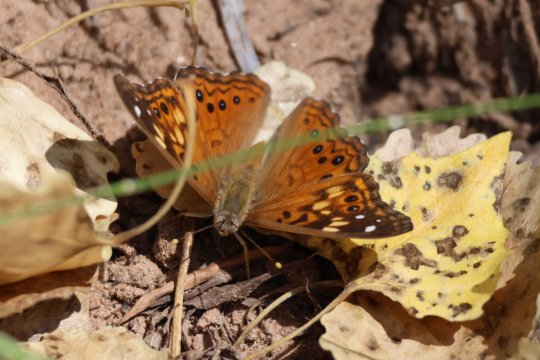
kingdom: Animalia
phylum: Arthropoda
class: Insecta
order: Lepidoptera
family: Nymphalidae
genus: Asterocampa
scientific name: Asterocampa celtis
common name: Hackberry Emperor
